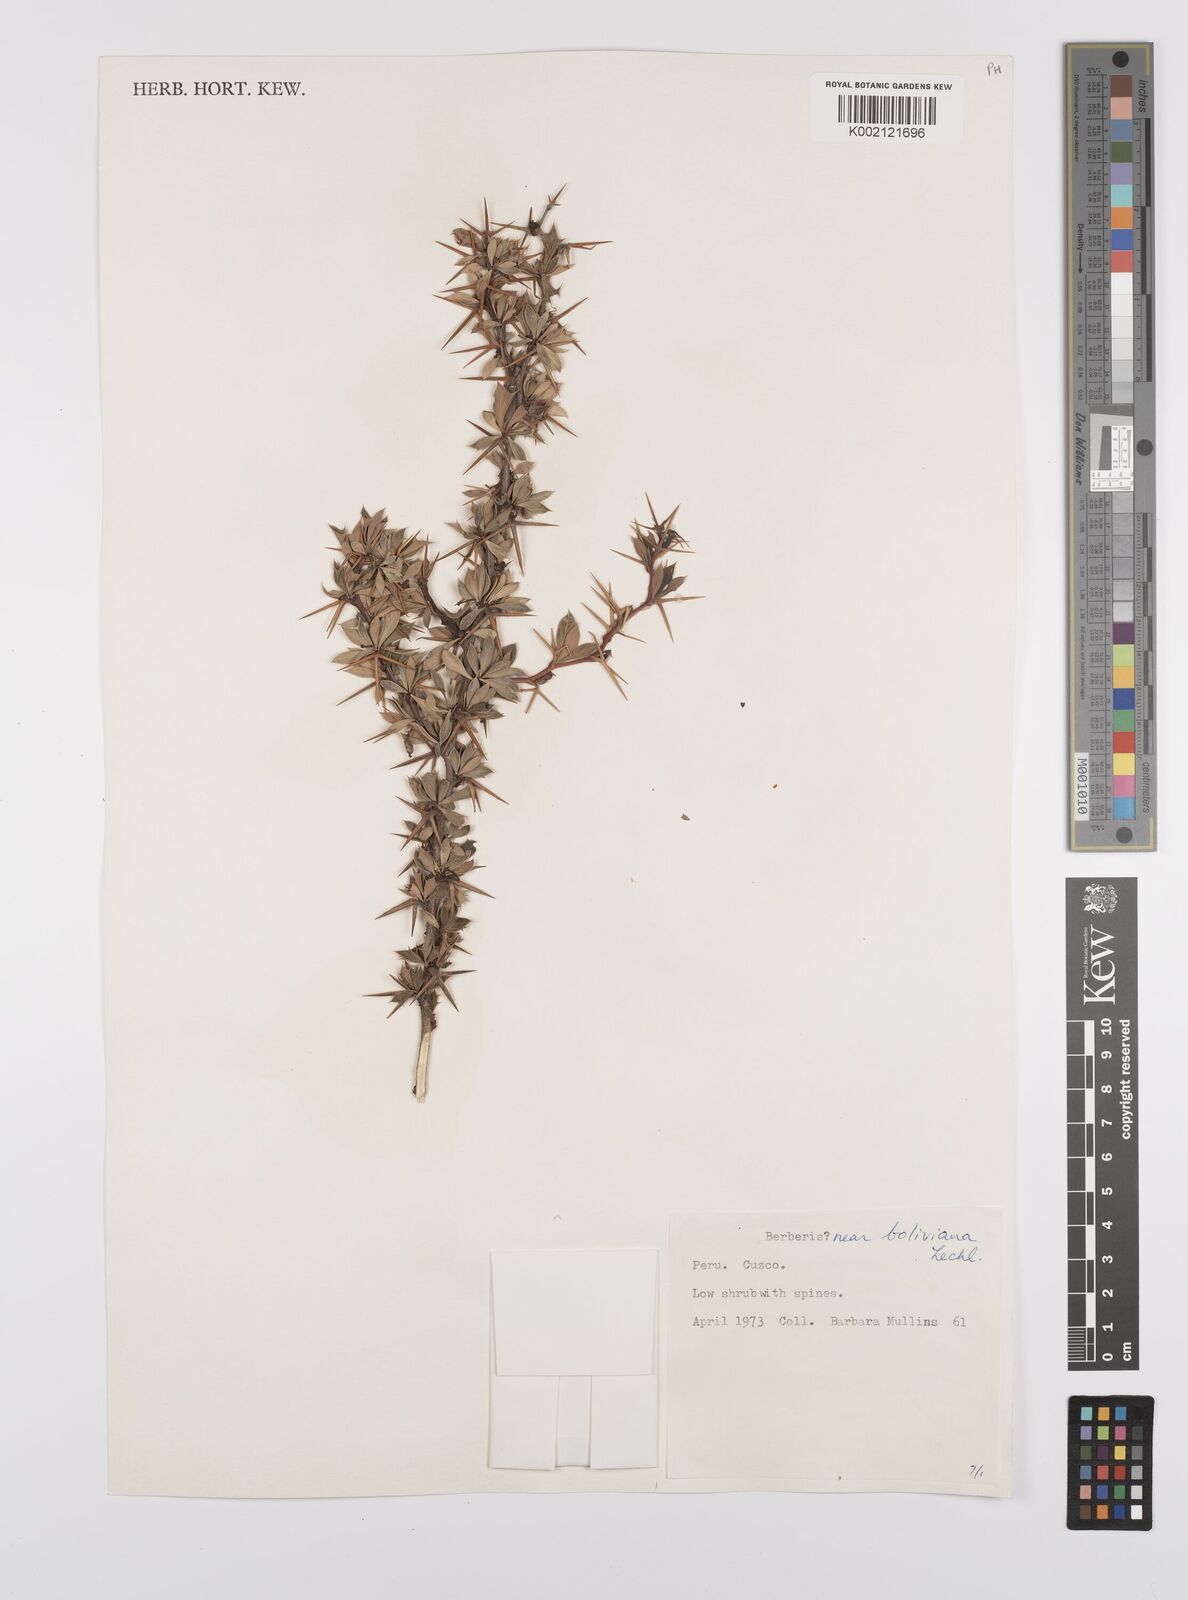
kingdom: Plantae
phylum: Tracheophyta
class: Magnoliopsida
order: Ranunculales
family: Berberidaceae
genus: Berberis
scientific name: Berberis boliviana
